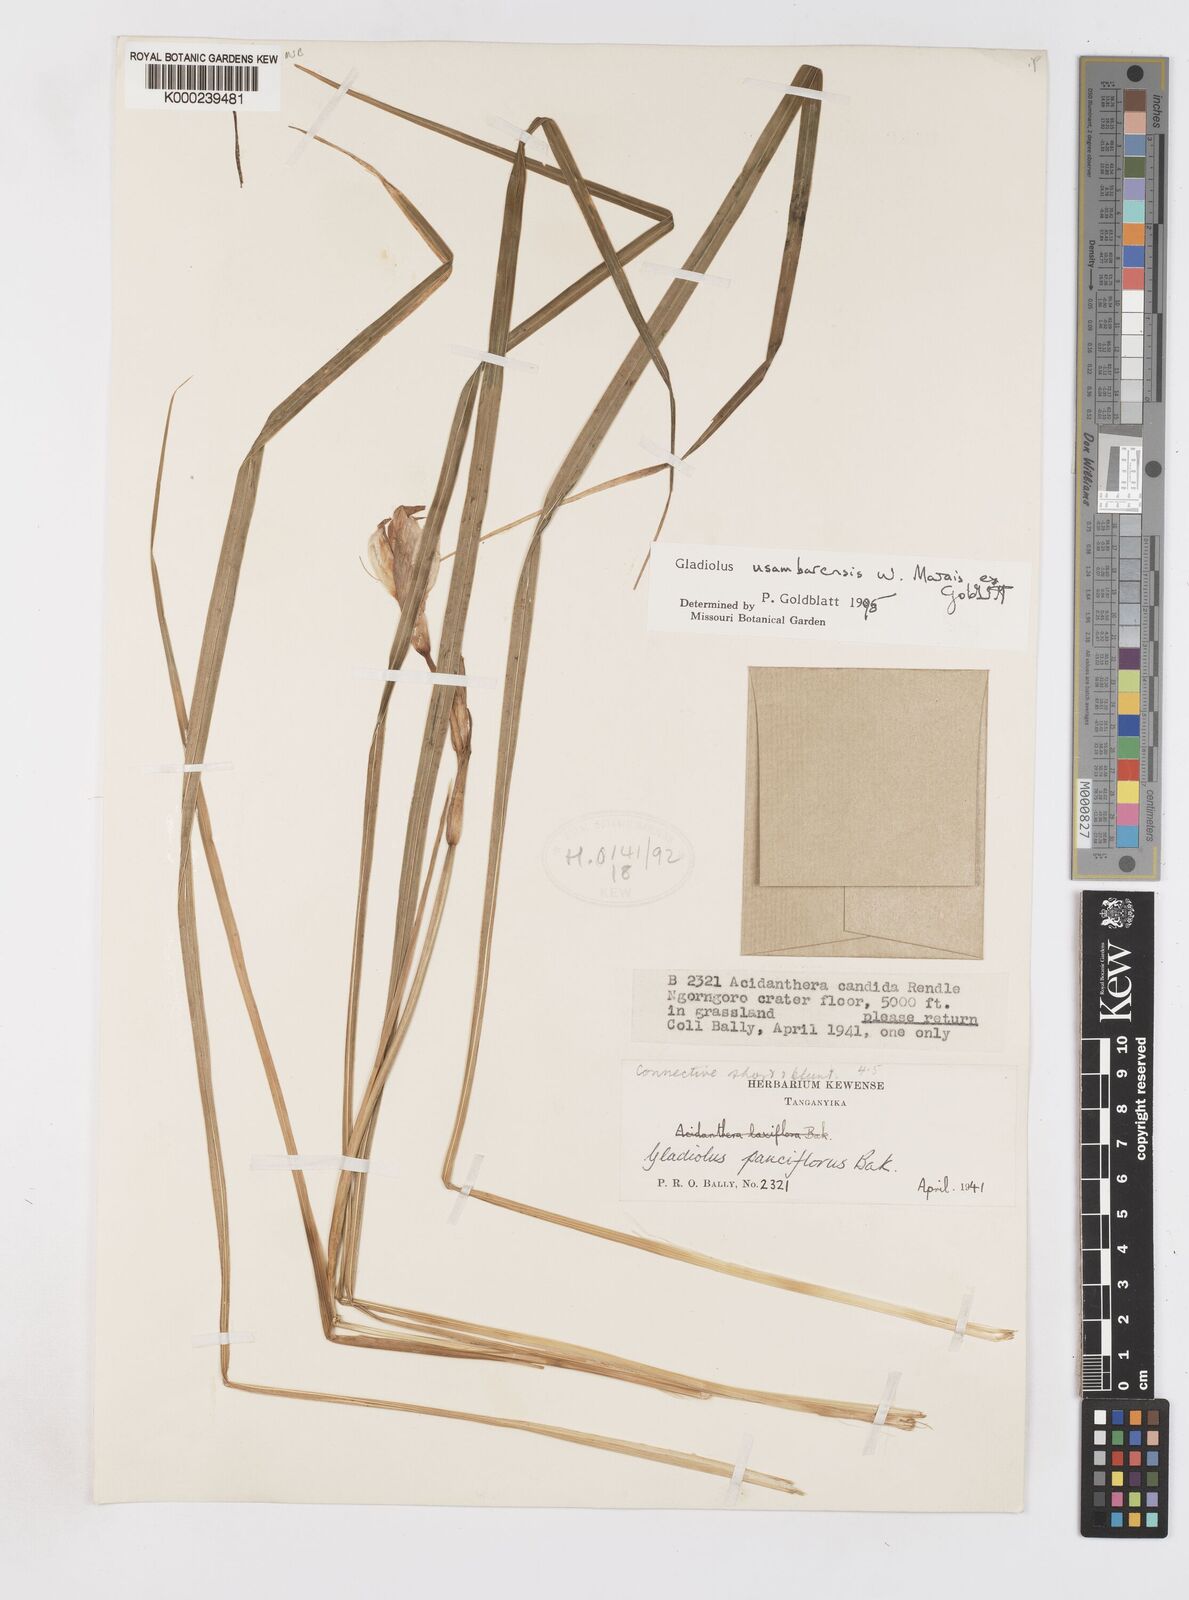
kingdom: Plantae
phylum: Tracheophyta
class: Liliopsida
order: Asparagales
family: Iridaceae
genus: Gladiolus
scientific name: Gladiolus usambarensis
